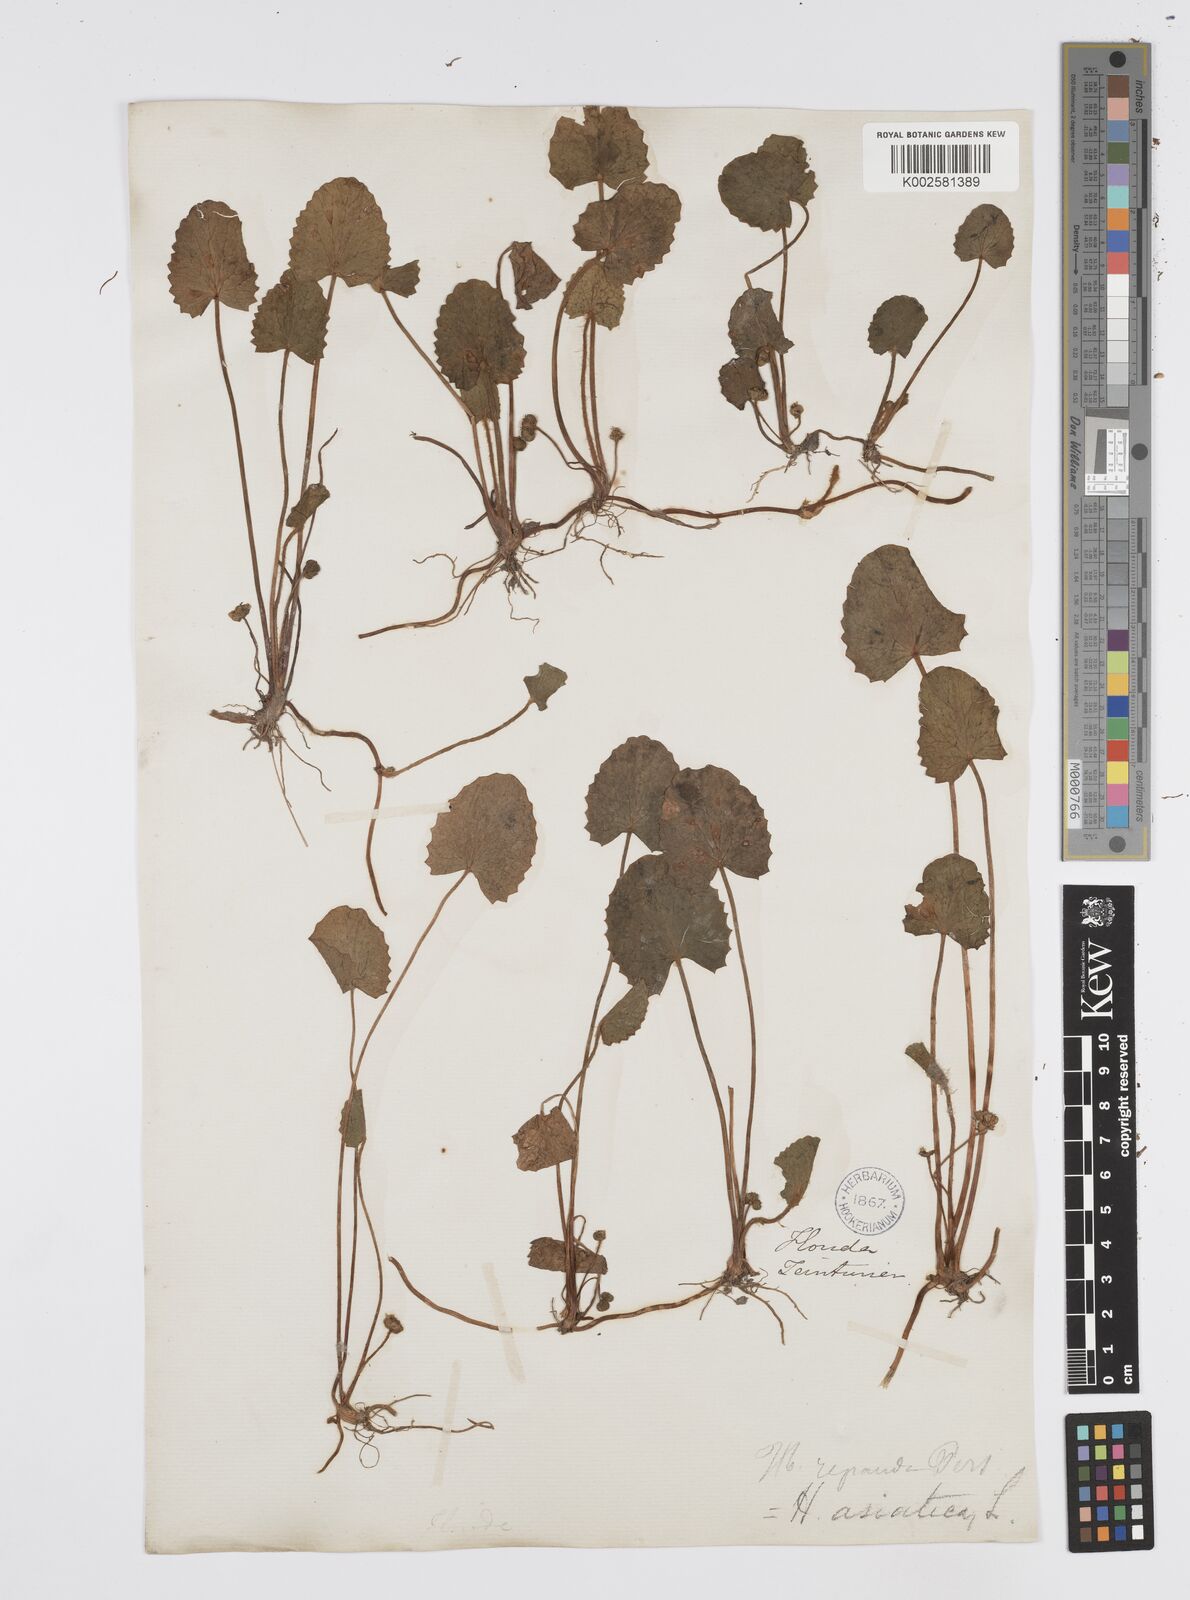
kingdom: Plantae
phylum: Tracheophyta
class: Magnoliopsida
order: Apiales
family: Apiaceae
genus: Centella
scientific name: Centella erecta
